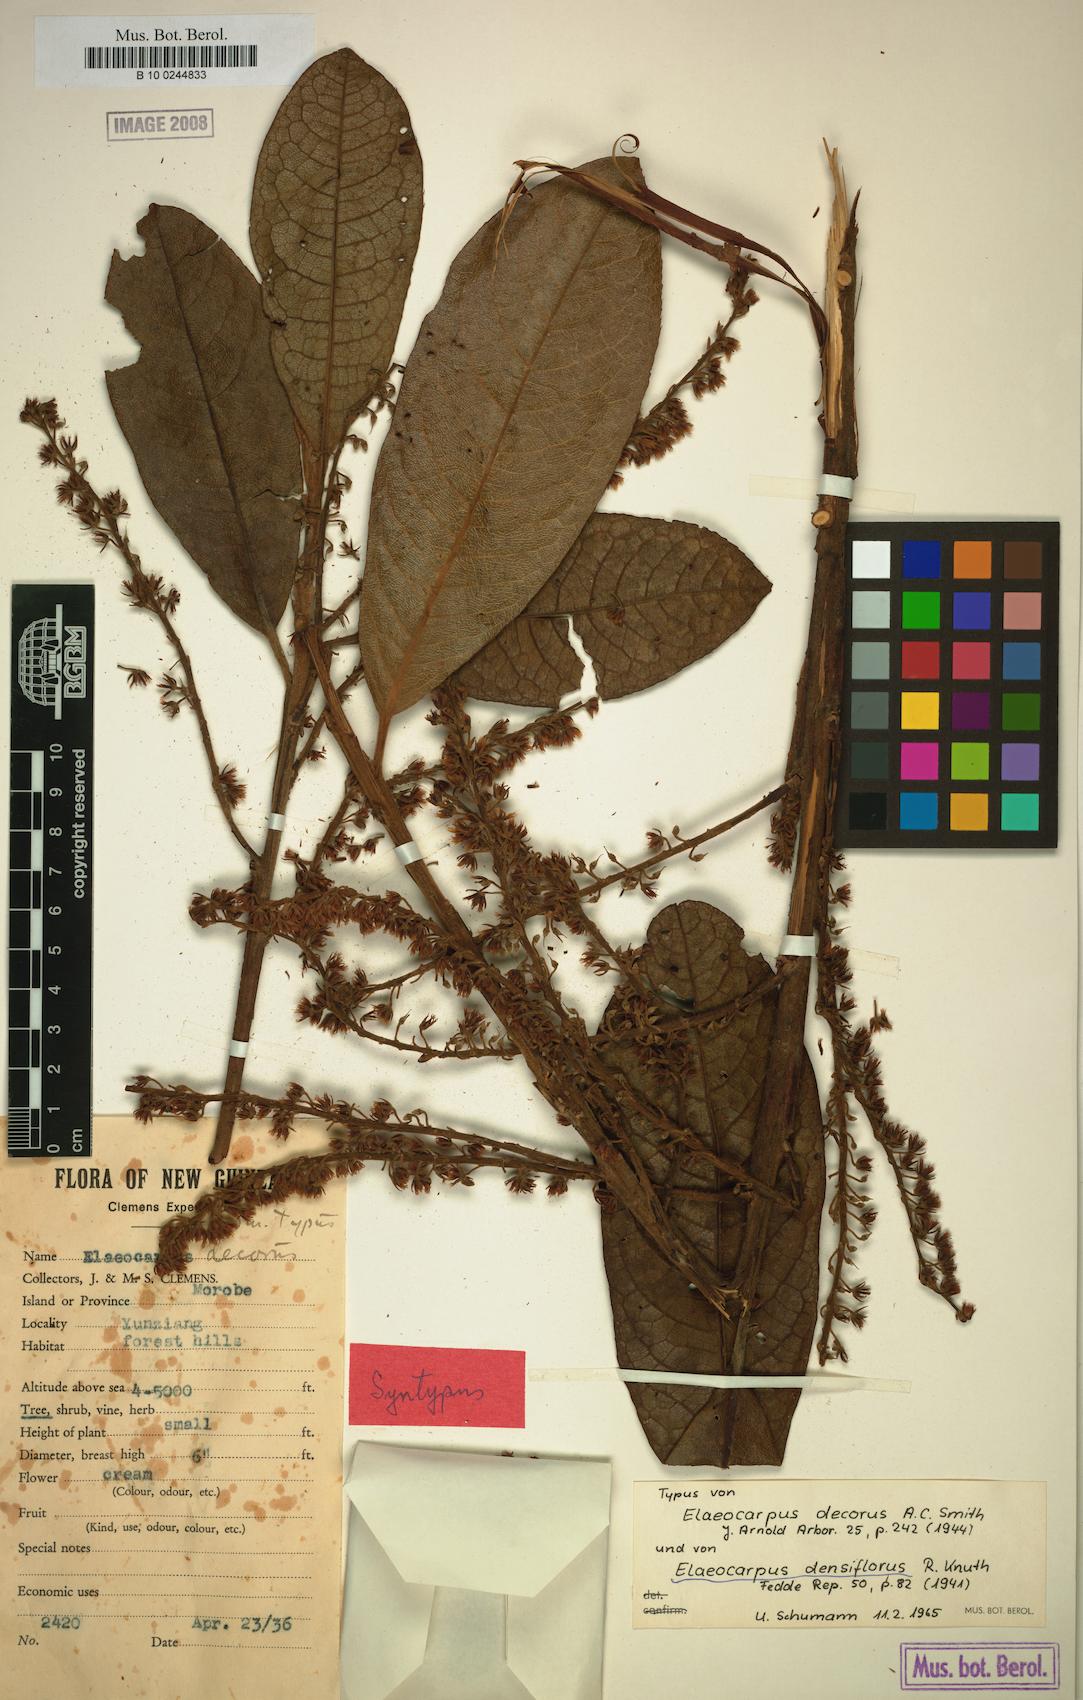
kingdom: Plantae
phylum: Tracheophyta
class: Magnoliopsida
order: Oxalidales
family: Elaeocarpaceae
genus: Elaeocarpus
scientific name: Elaeocarpus densiflorus
